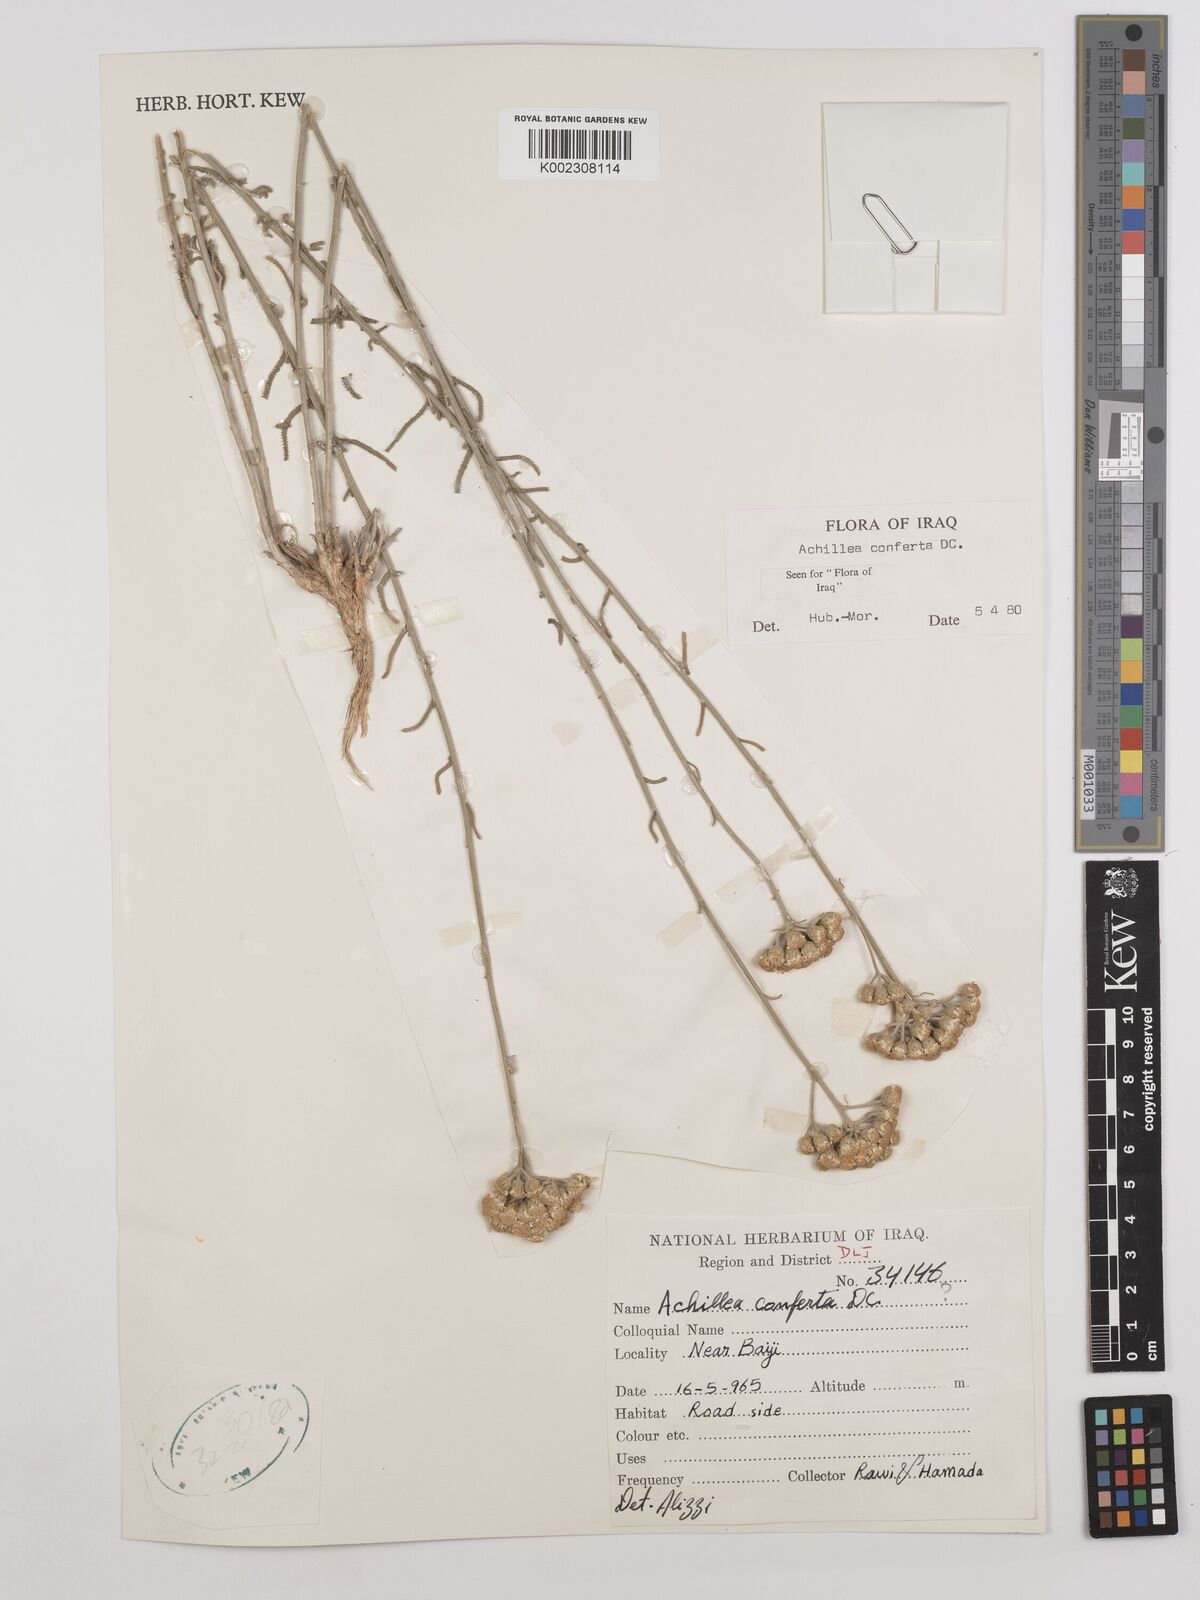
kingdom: Plantae
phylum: Tracheophyta
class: Magnoliopsida
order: Asterales
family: Asteraceae
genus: Achillea
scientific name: Achillea conferta
